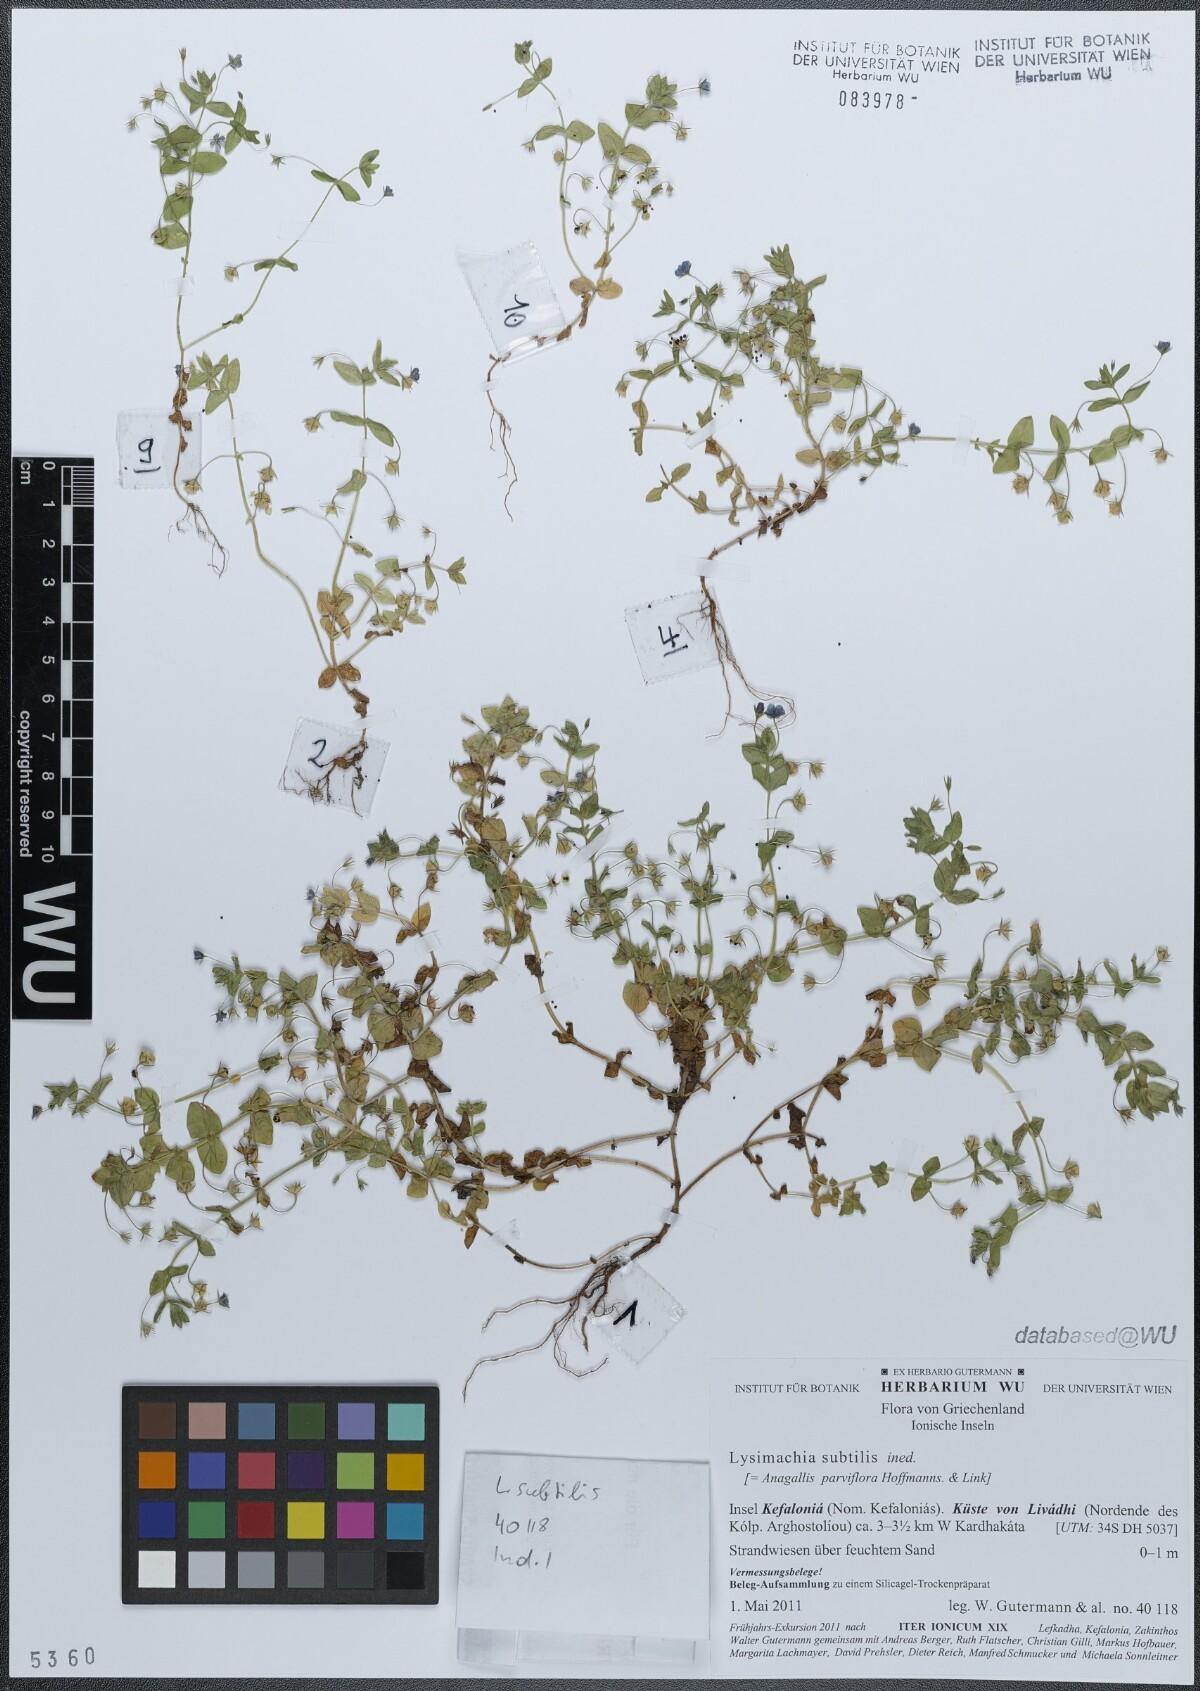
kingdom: Plantae
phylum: Tracheophyta
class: Magnoliopsida
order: Ericales
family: Primulaceae
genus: Lysimachia
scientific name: Lysimachia talaverae
